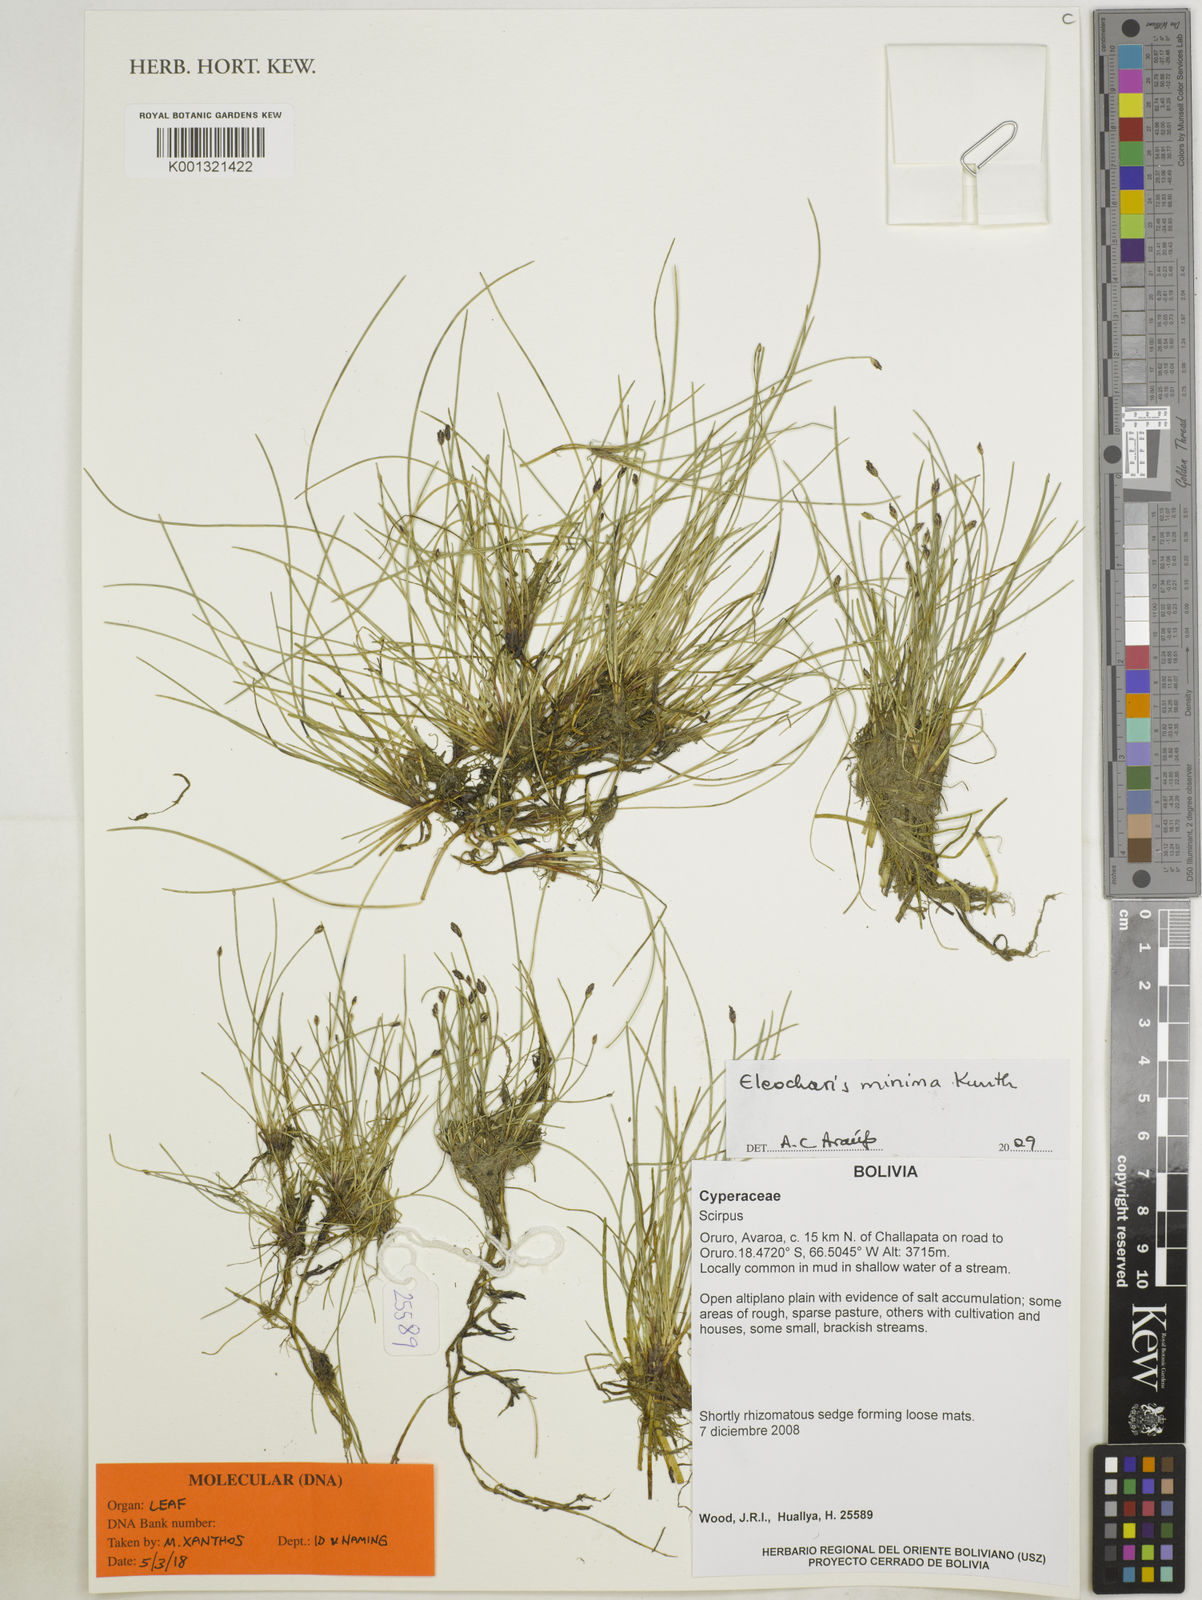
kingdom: Plantae
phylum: Tracheophyta
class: Liliopsida
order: Poales
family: Cyperaceae
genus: Eleocharis
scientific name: Eleocharis minima
